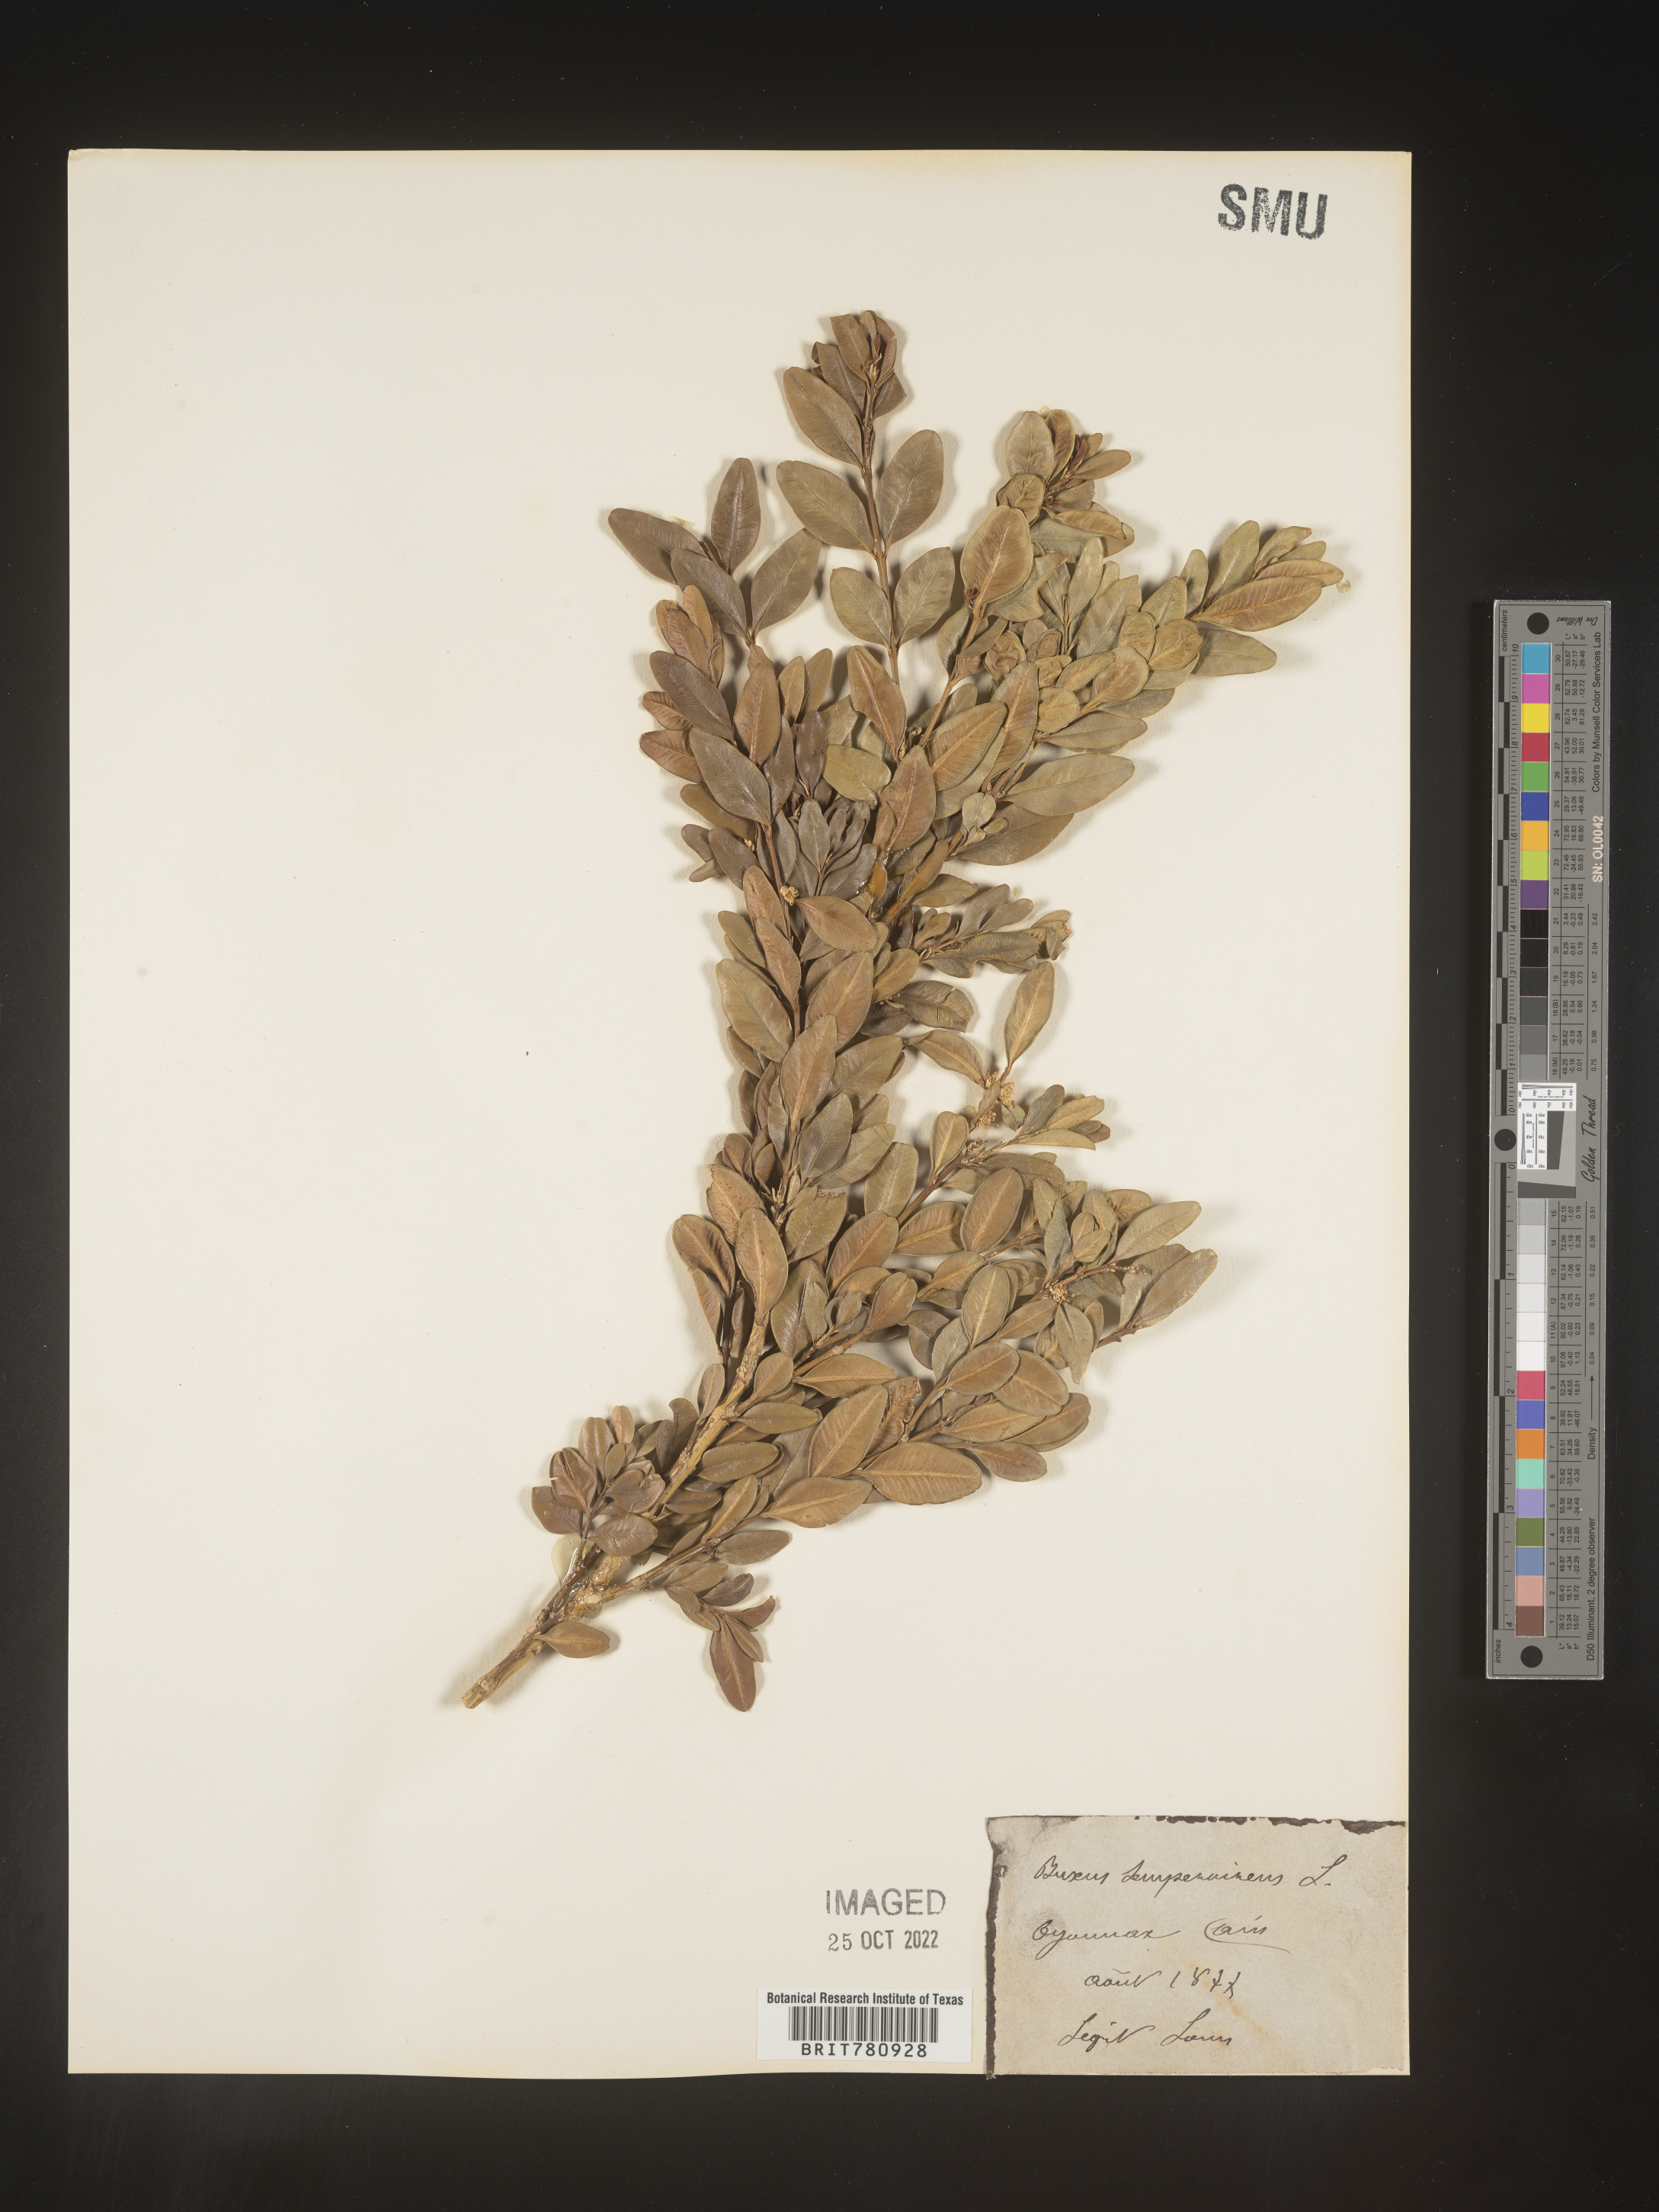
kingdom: Plantae
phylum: Tracheophyta
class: Magnoliopsida
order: Buxales
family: Buxaceae
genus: Buxus
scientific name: Buxus
